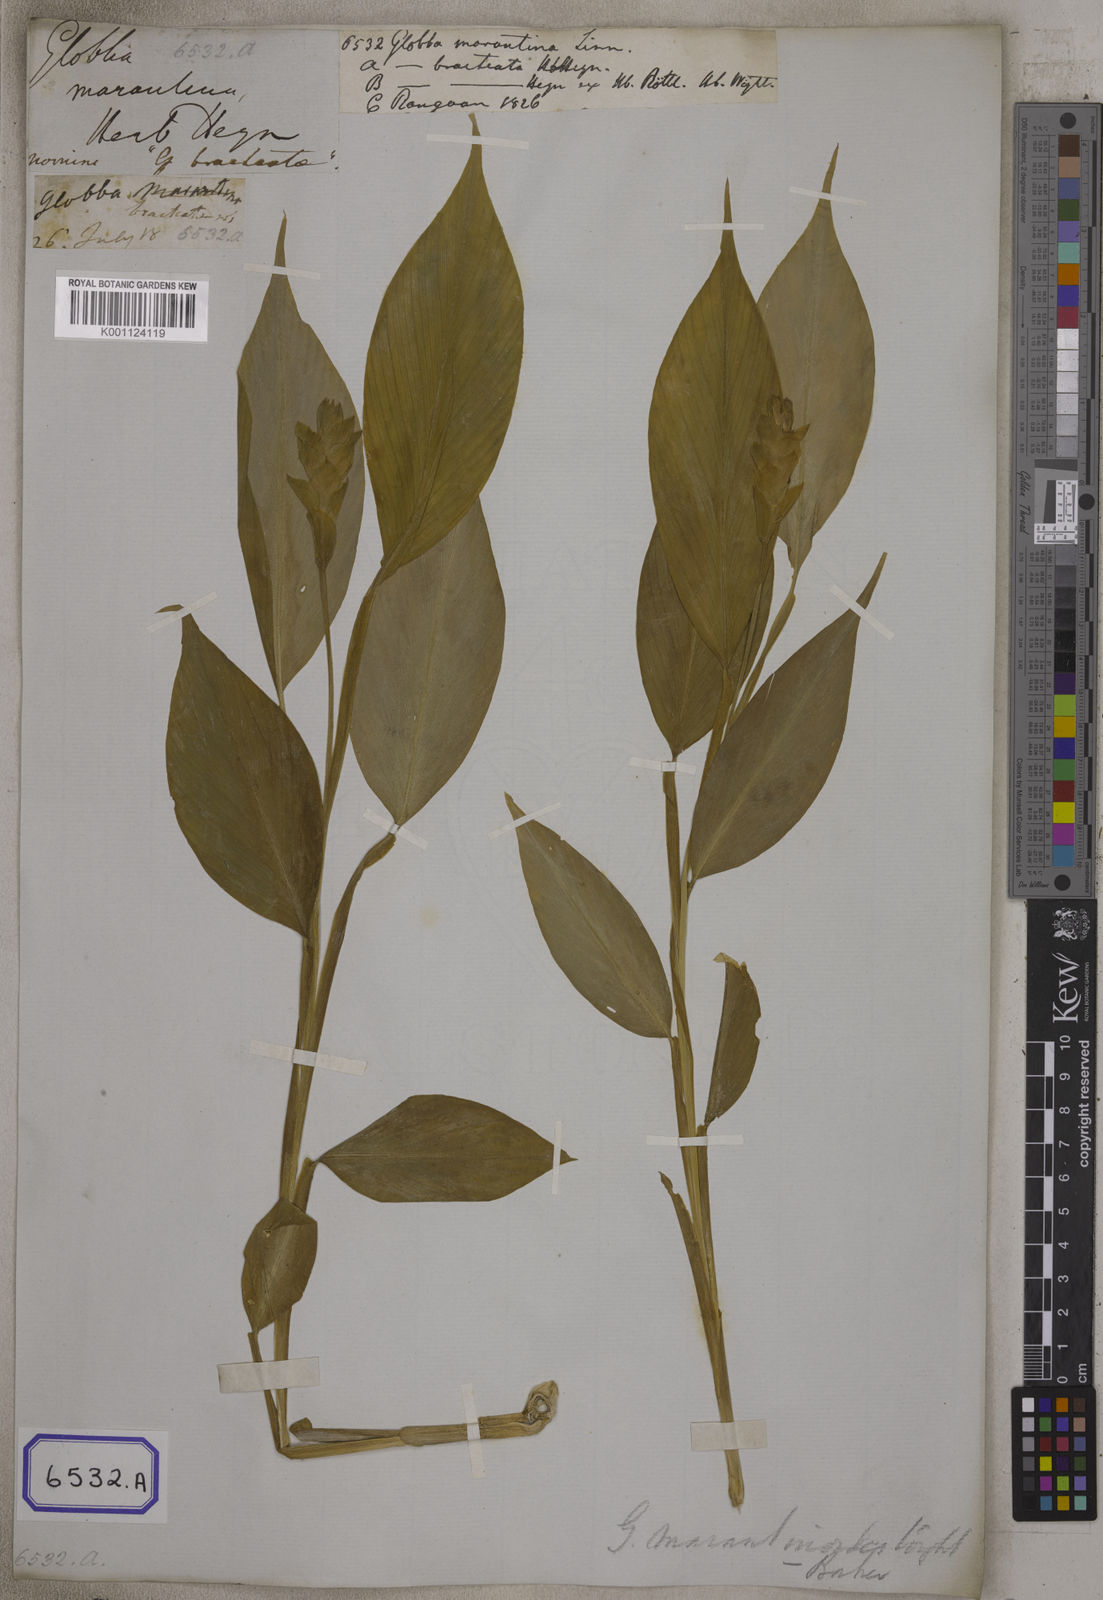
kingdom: Plantae
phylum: Tracheophyta
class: Liliopsida
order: Zingiberales
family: Zingiberaceae
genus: Globba
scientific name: Globba marantina
